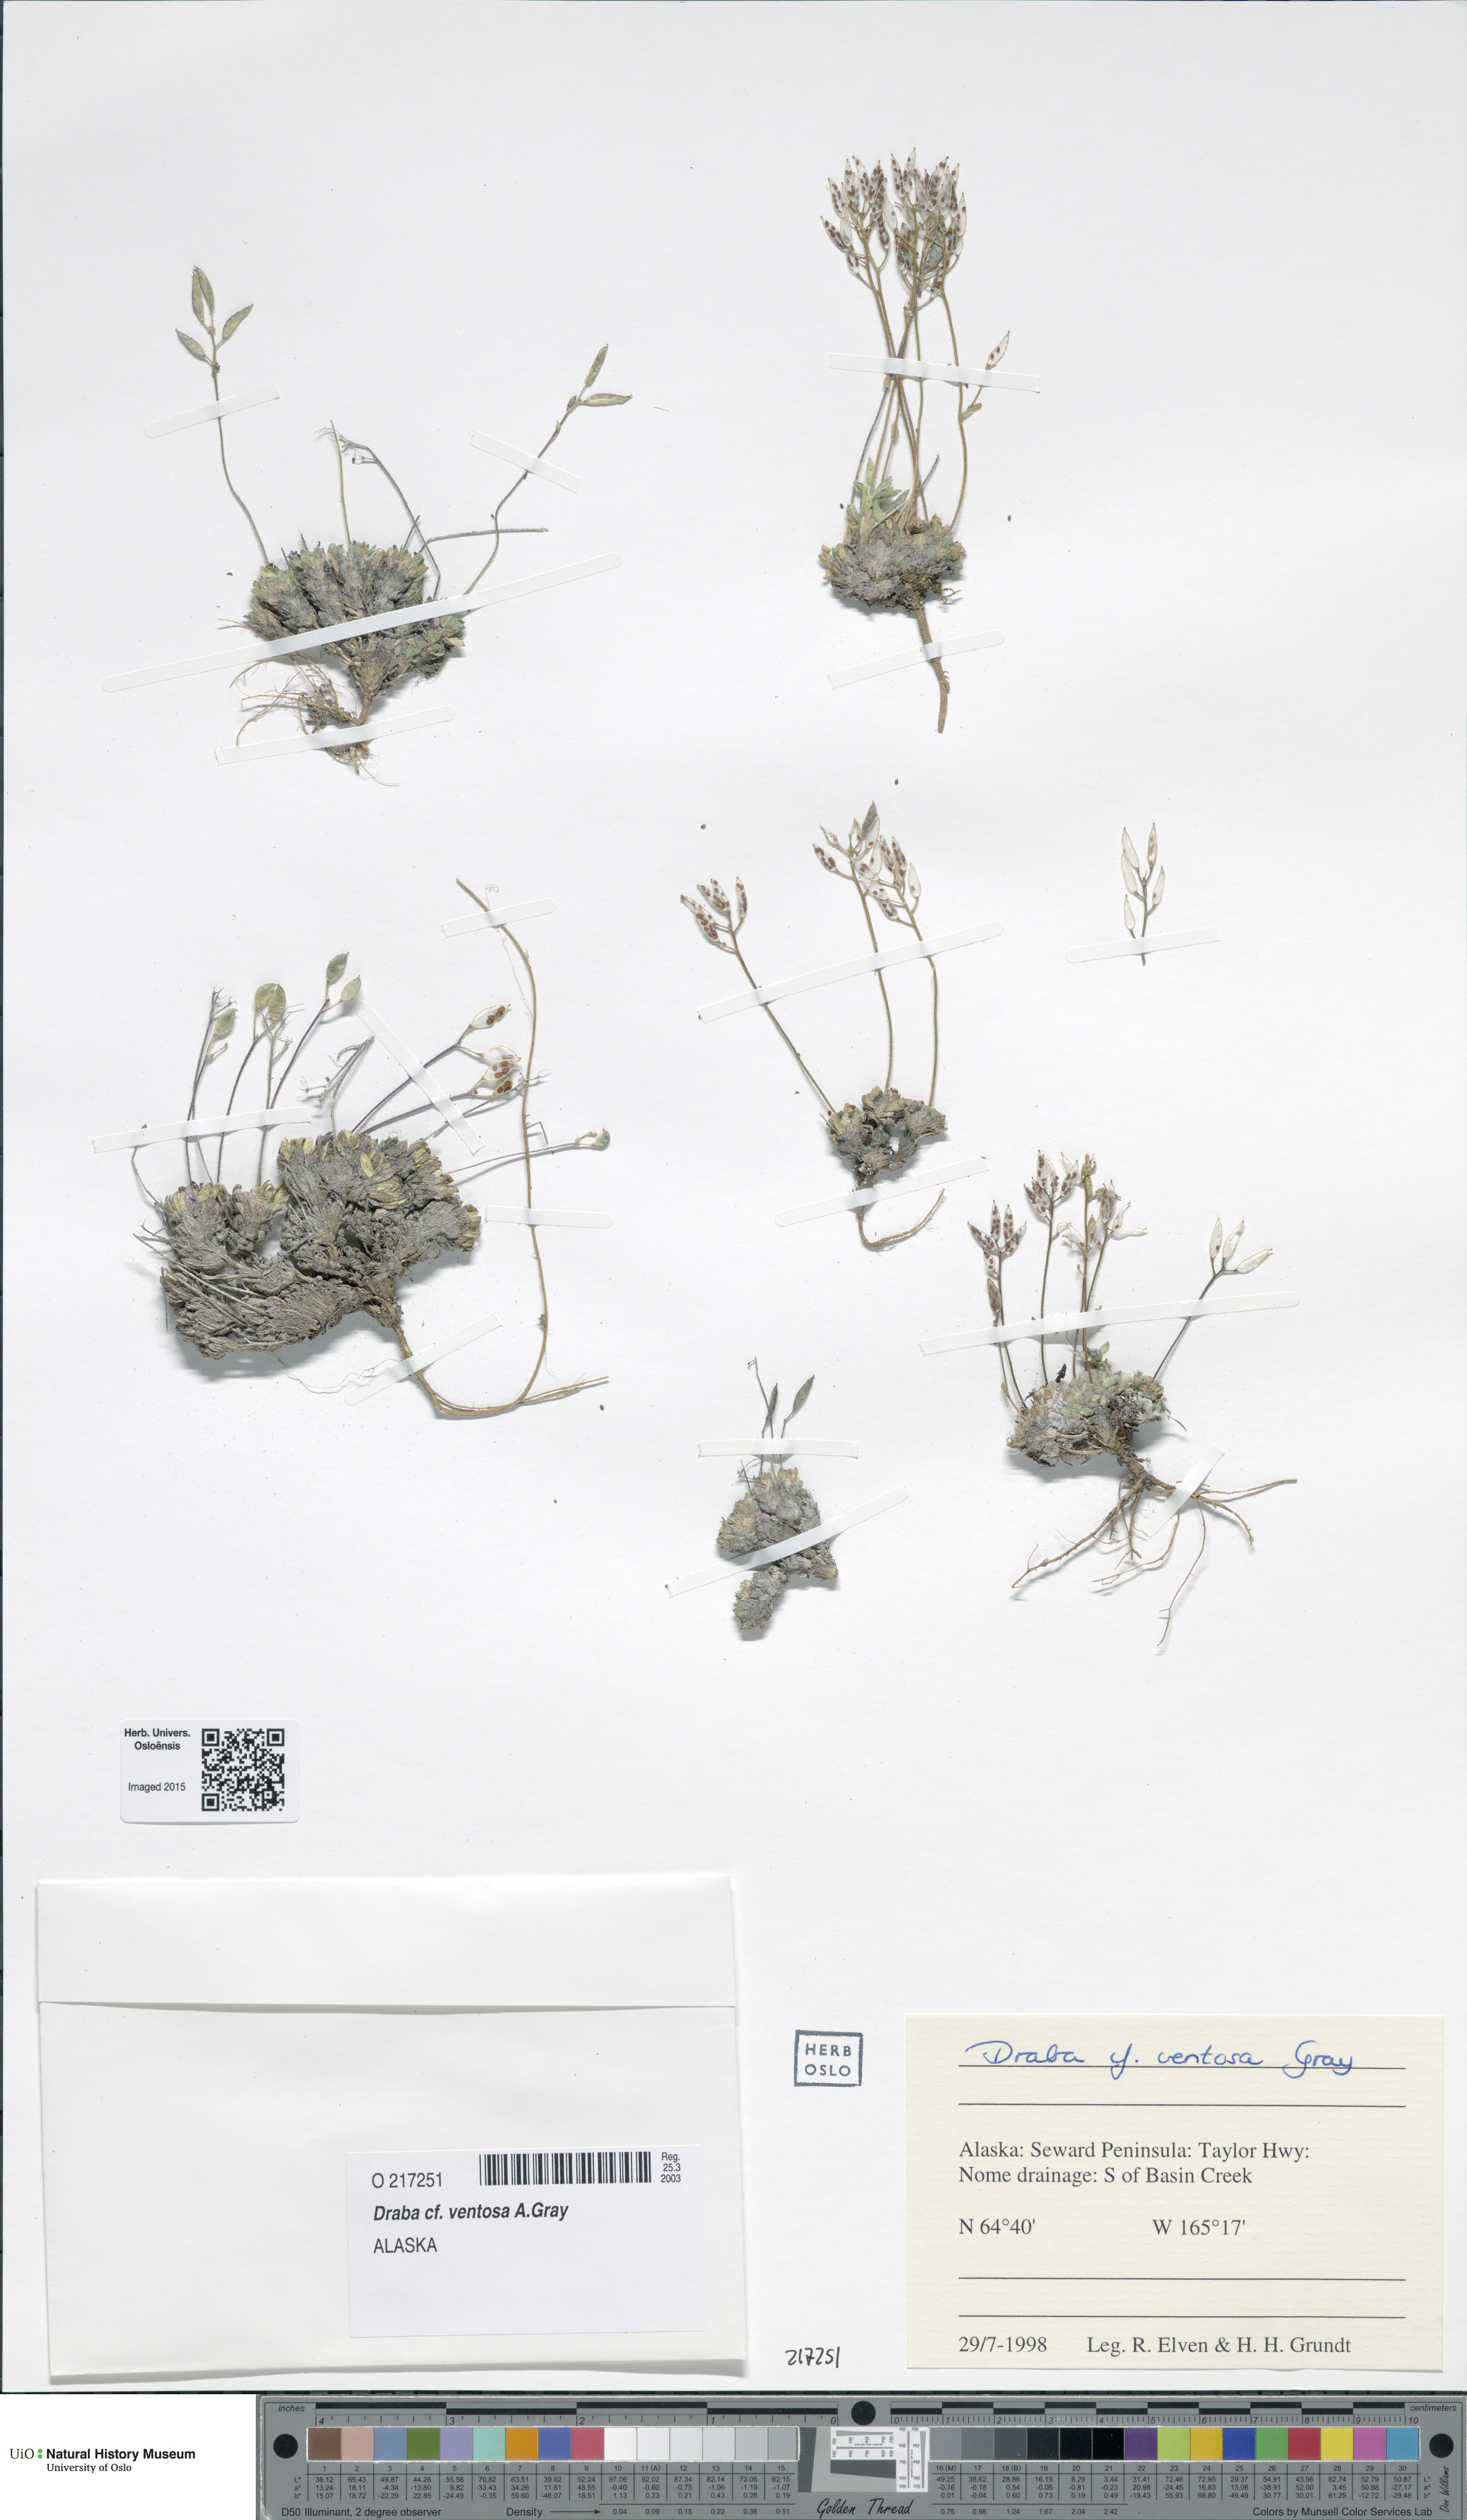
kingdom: Plantae
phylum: Tracheophyta
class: Magnoliopsida
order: Brassicales
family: Brassicaceae
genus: Draba
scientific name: Draba ventosa
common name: Wind river draba
